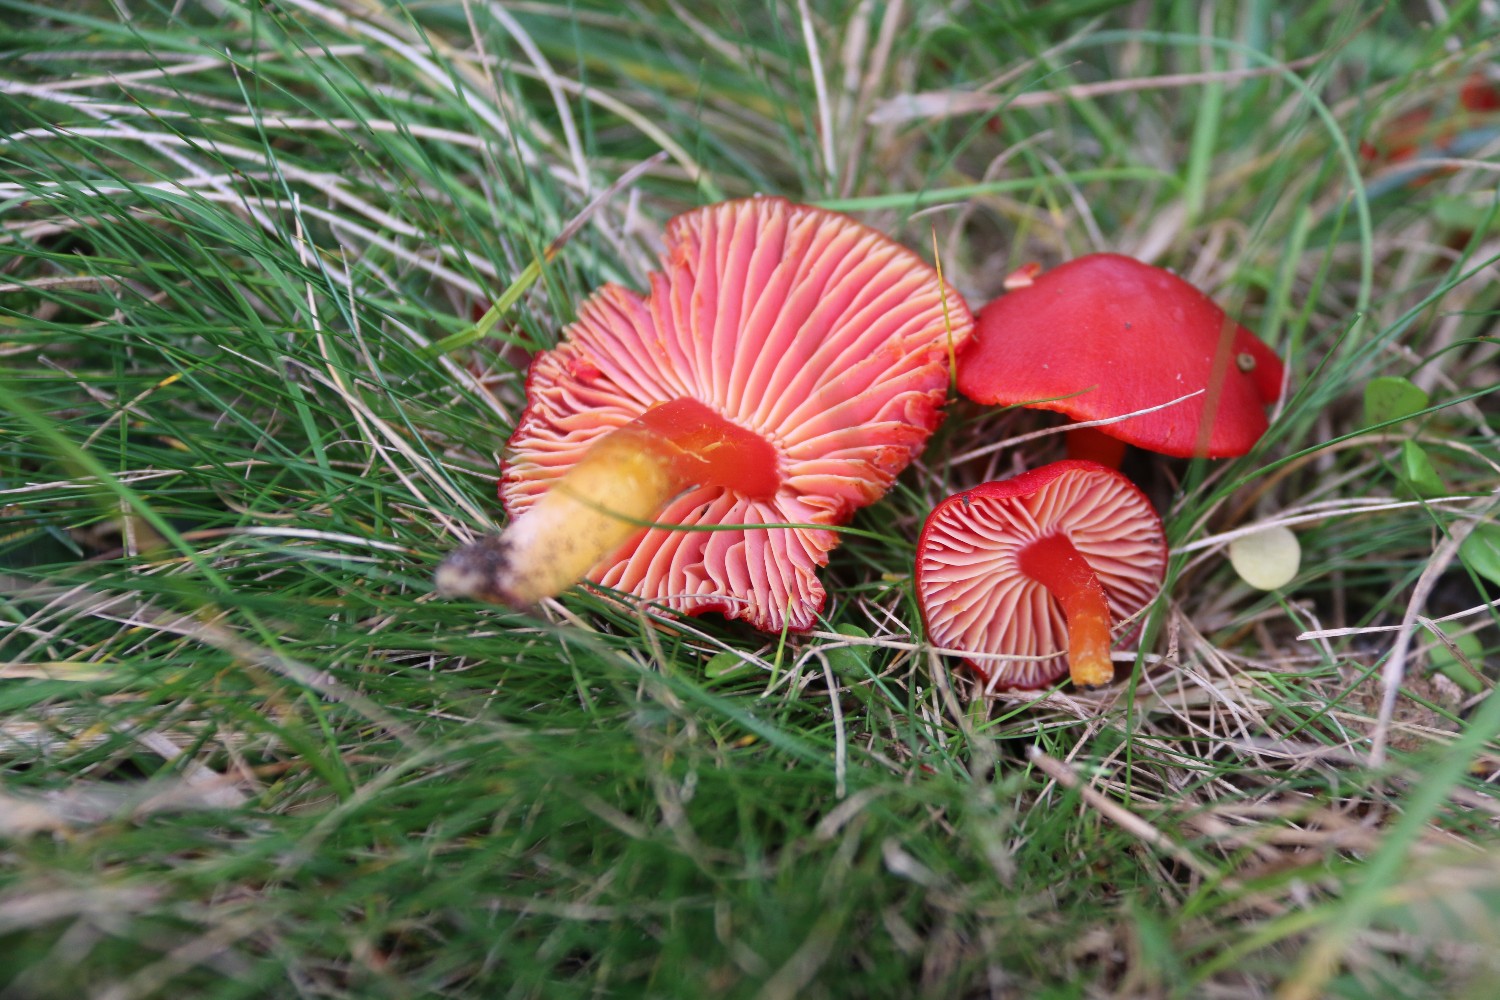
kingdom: Fungi
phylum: Basidiomycota
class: Agaricomycetes
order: Agaricales
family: Hygrophoraceae
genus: Hygrocybe
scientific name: Hygrocybe coccinea
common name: cinnober-vokshat
